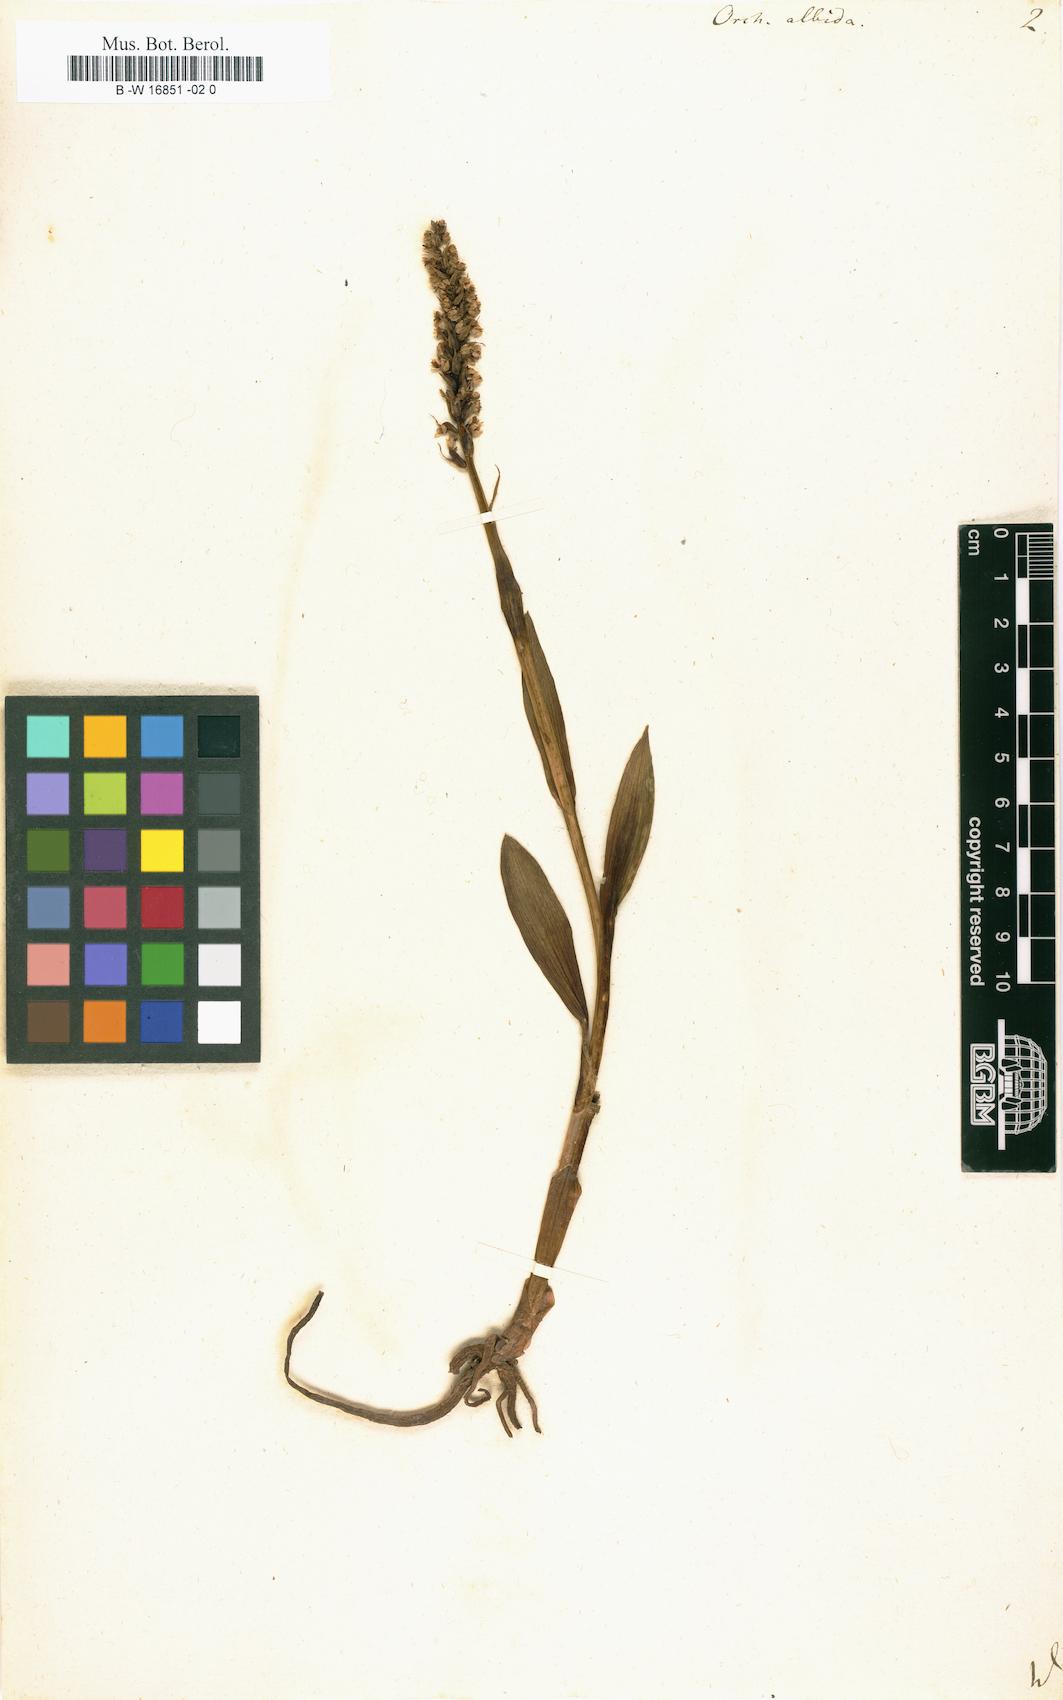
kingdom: Plantae
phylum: Tracheophyta
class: Liliopsida
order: Asparagales
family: Orchidaceae
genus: Pseudorchis
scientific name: Pseudorchis albida
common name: Small-white orchid
